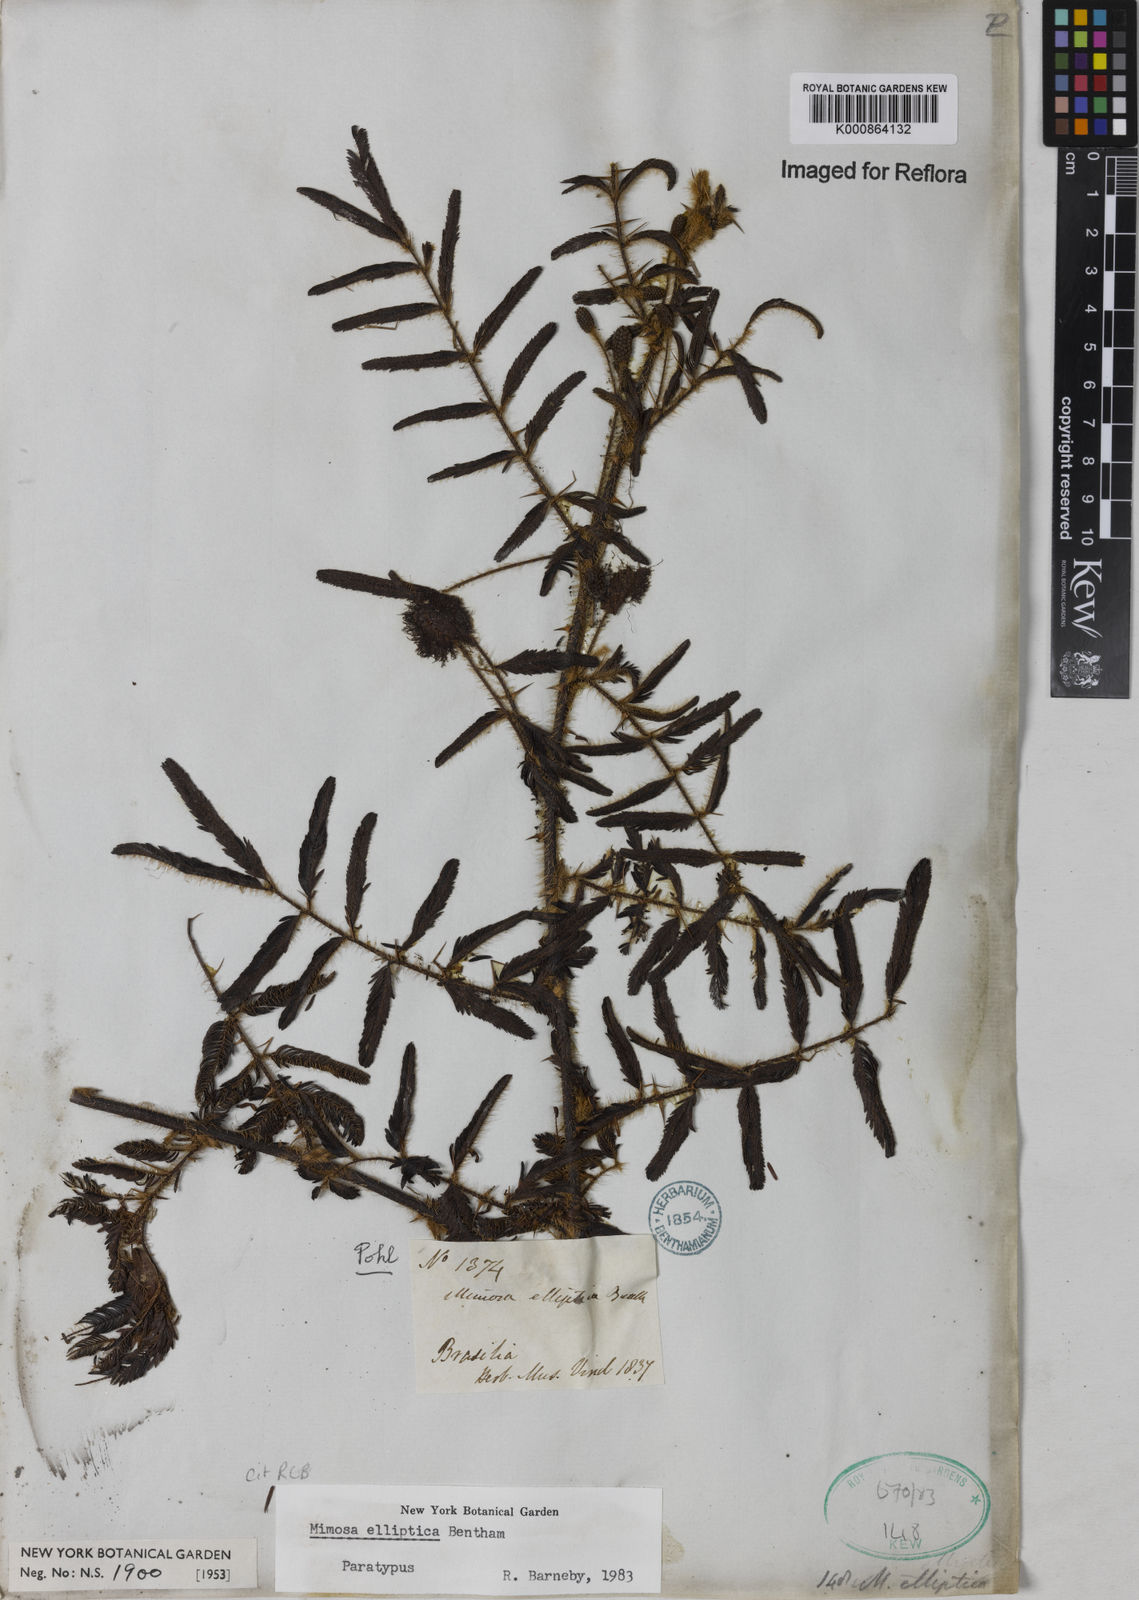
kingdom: Plantae
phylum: Tracheophyta
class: Magnoliopsida
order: Fabales
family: Fabaceae
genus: Mimosa
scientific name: Mimosa elliptica
